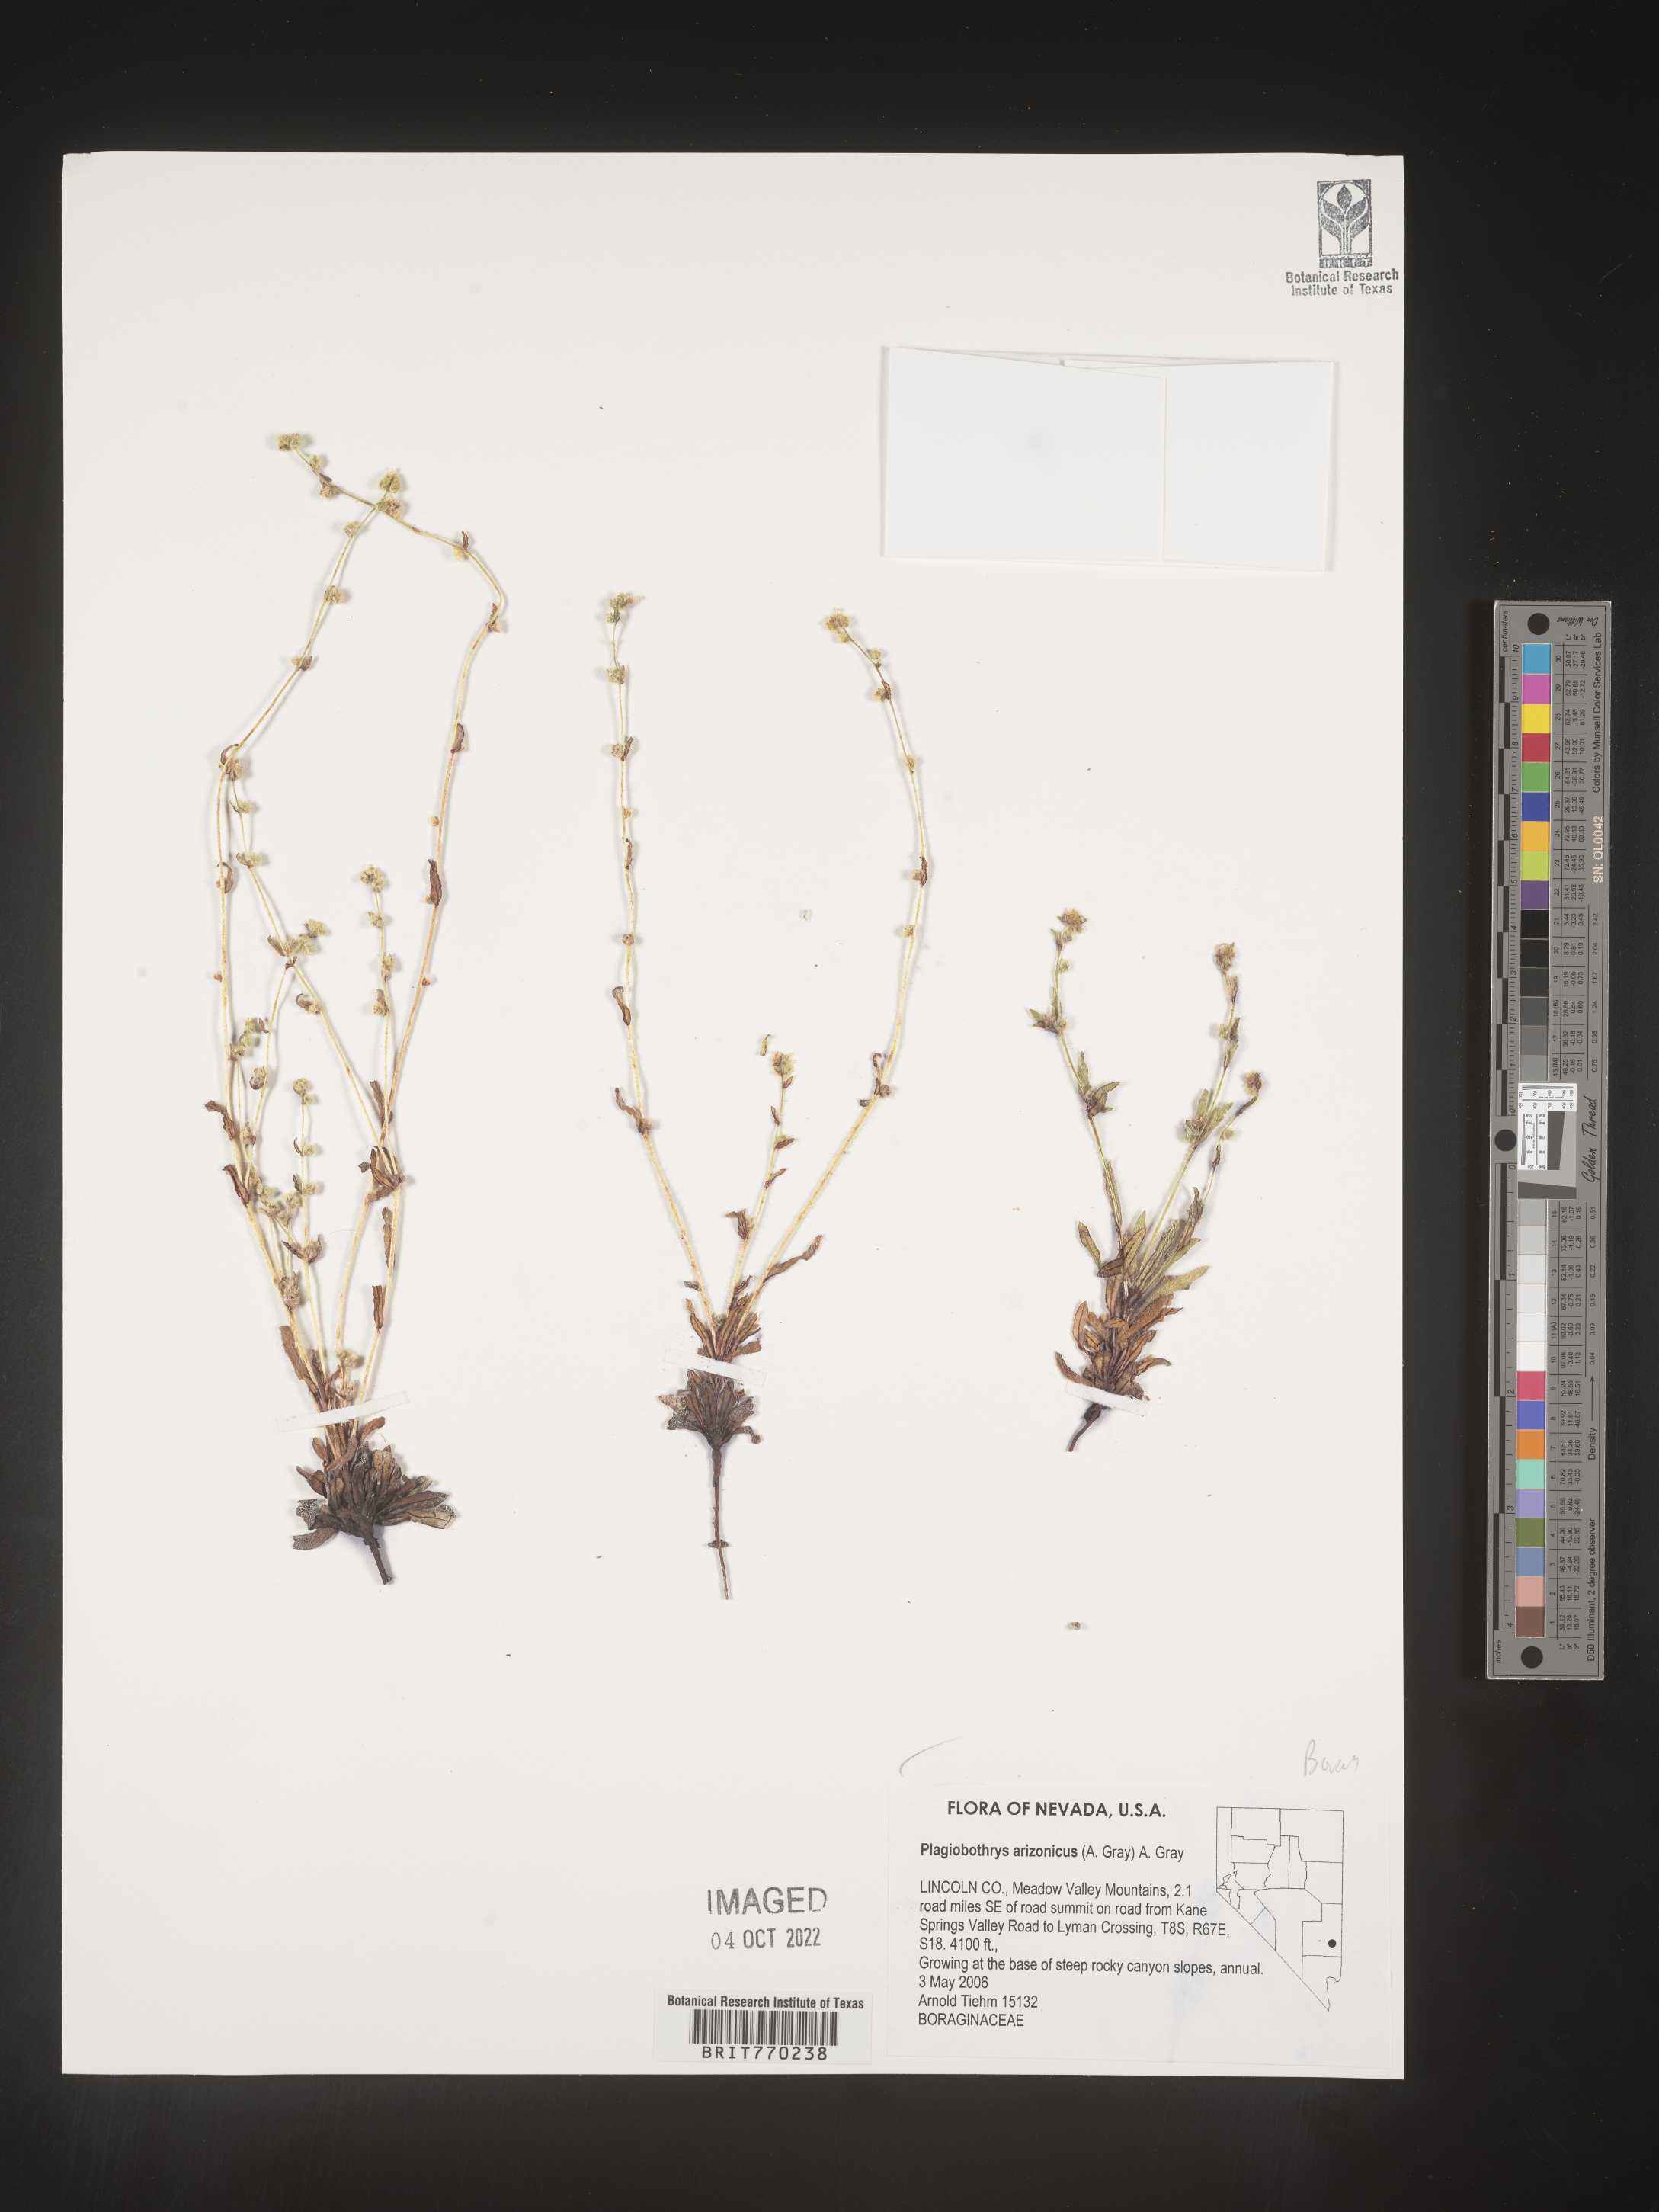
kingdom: Plantae
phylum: Tracheophyta
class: Magnoliopsida
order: Boraginales
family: Boraginaceae
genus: Plagiobothrys
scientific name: Plagiobothrys
